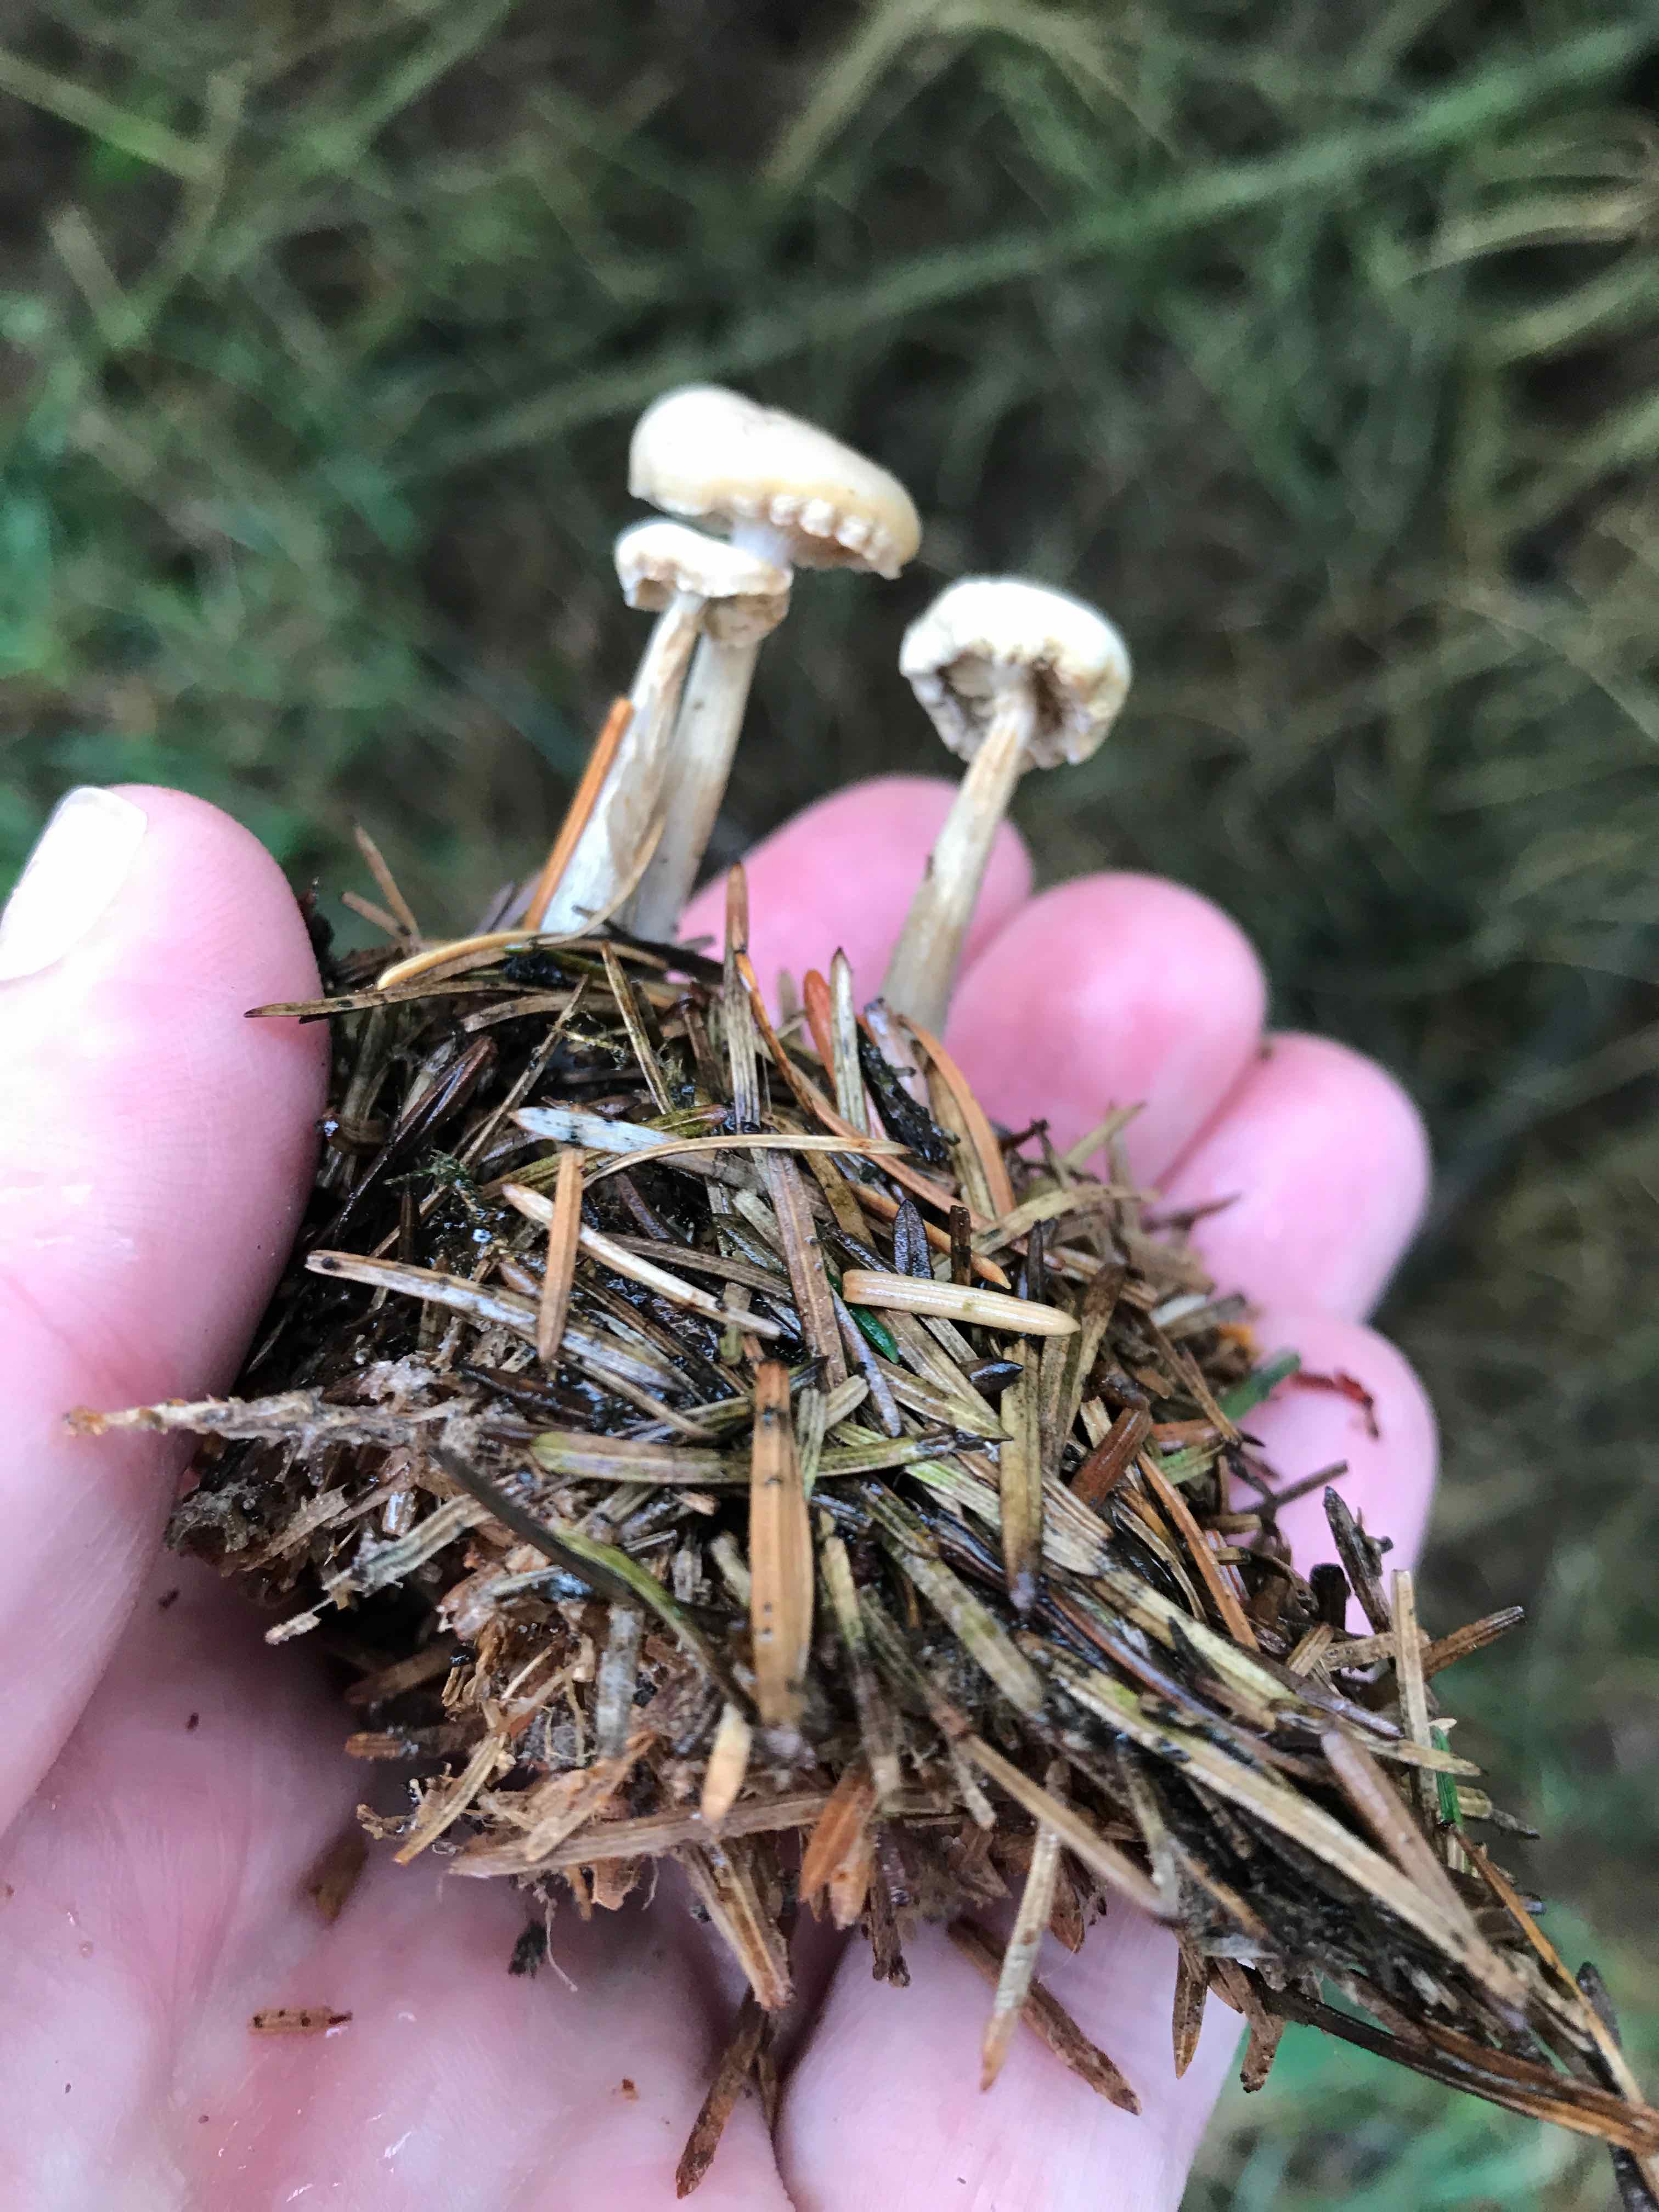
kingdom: Fungi
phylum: Basidiomycota
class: Agaricomycetes
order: Agaricales
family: Tricholomataceae
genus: Clitocybe
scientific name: Clitocybe
